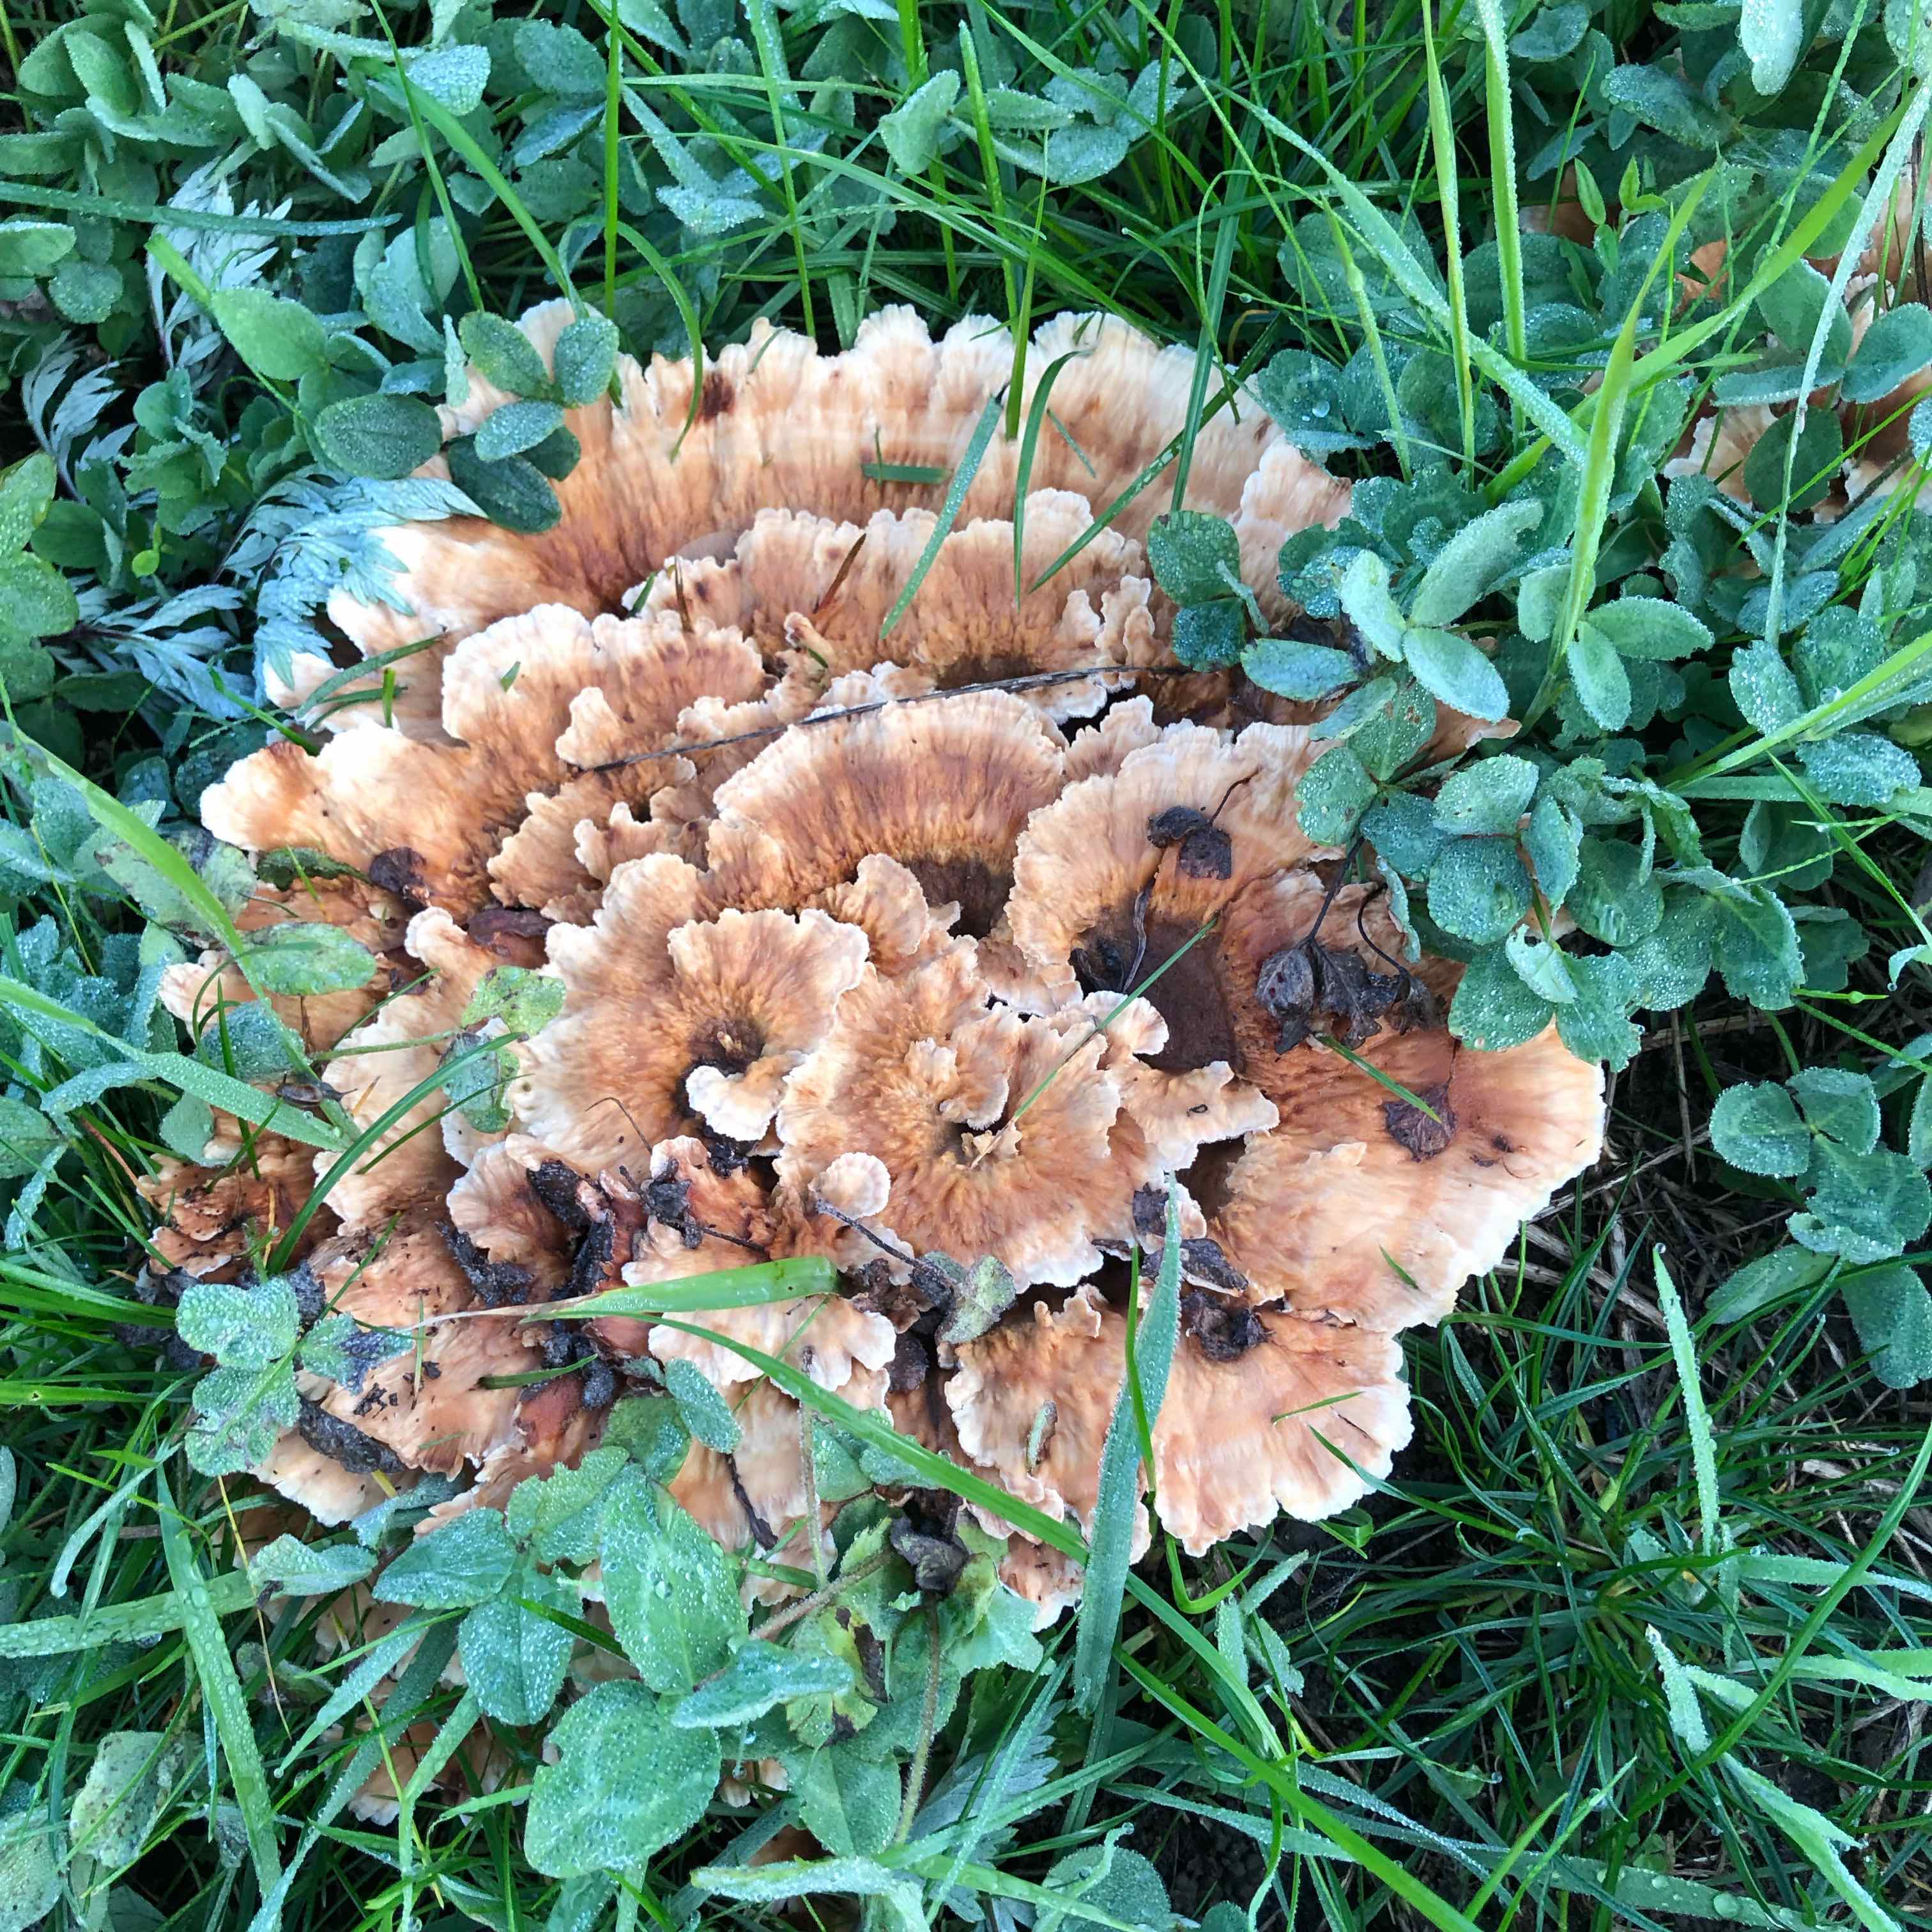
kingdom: Fungi
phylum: Basidiomycota
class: Agaricomycetes
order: Polyporales
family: Podoscyphaceae
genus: Abortiporus
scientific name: Abortiporus biennis
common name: rødmende pjalteporesvamp
